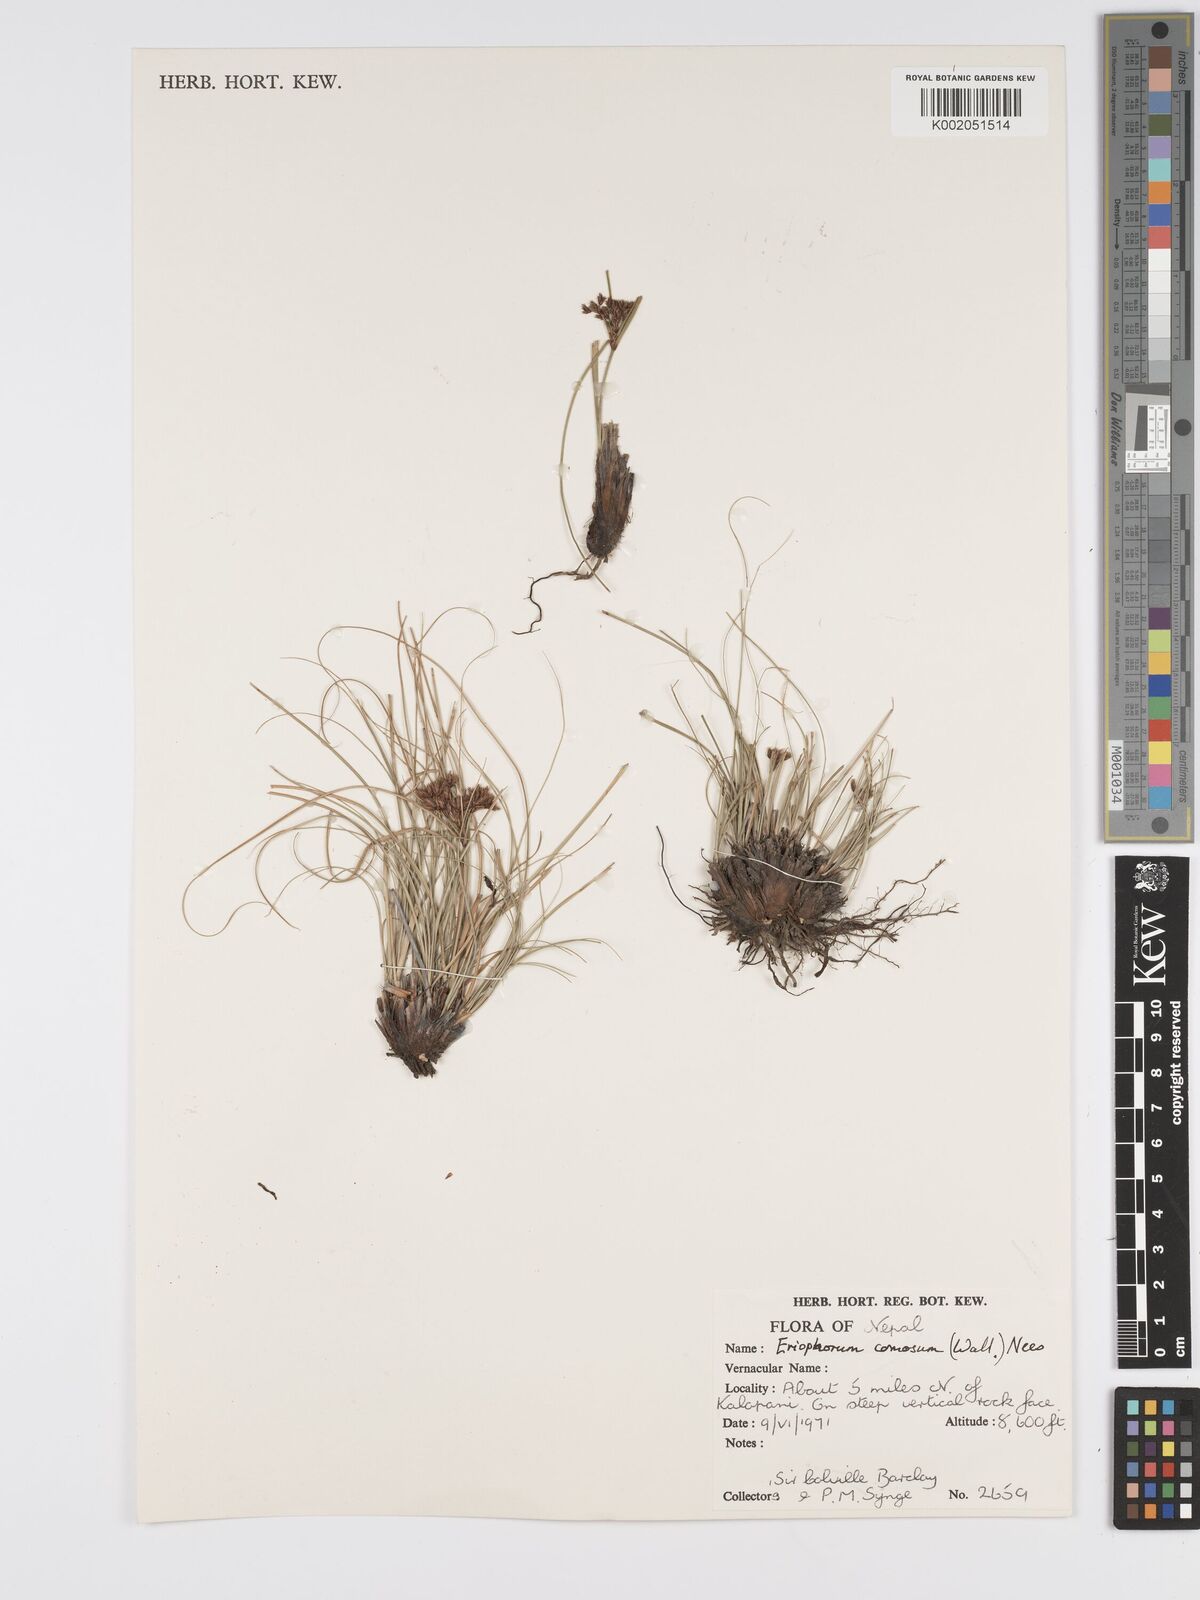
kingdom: Plantae
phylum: Tracheophyta
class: Liliopsida
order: Poales
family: Cyperaceae
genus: Erioscirpus
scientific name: Erioscirpus comosus
